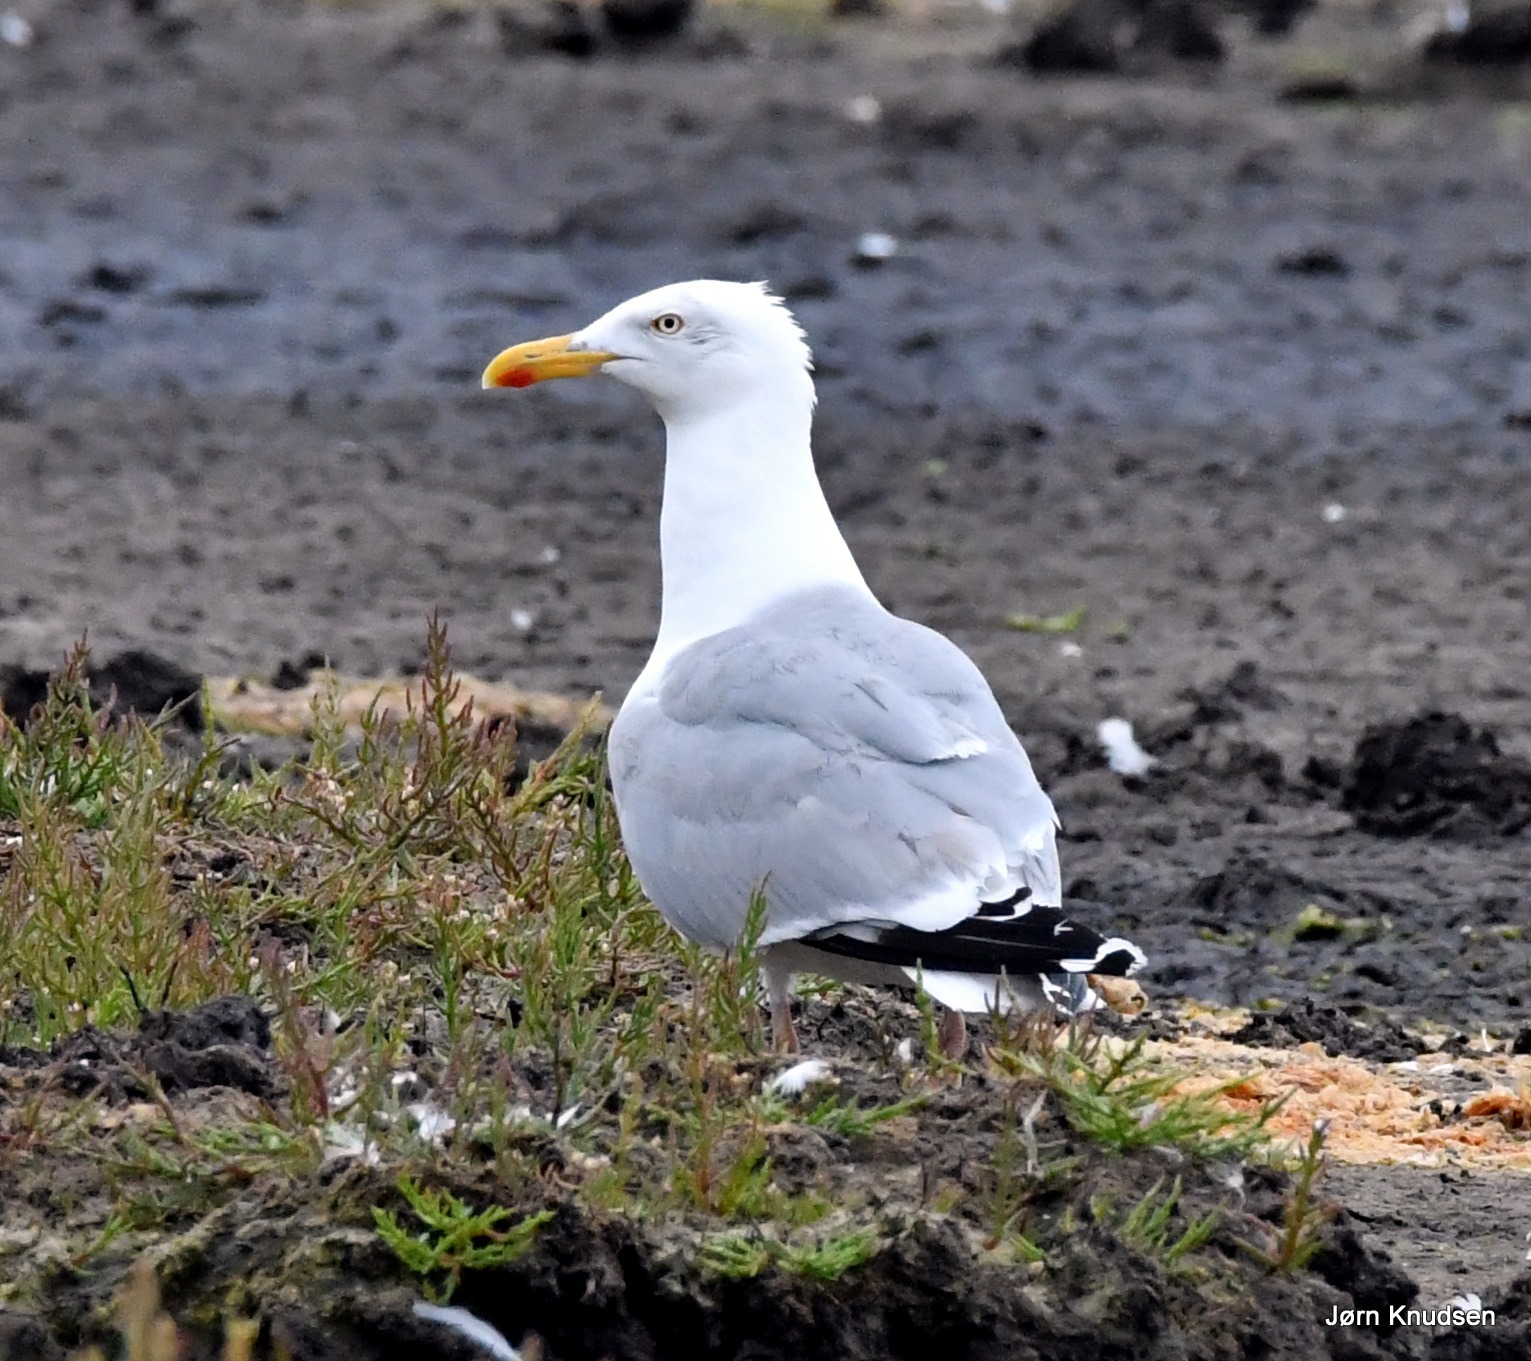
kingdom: Animalia
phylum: Chordata
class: Aves
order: Charadriiformes
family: Laridae
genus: Larus
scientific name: Larus argentatus
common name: Sølvmåge
